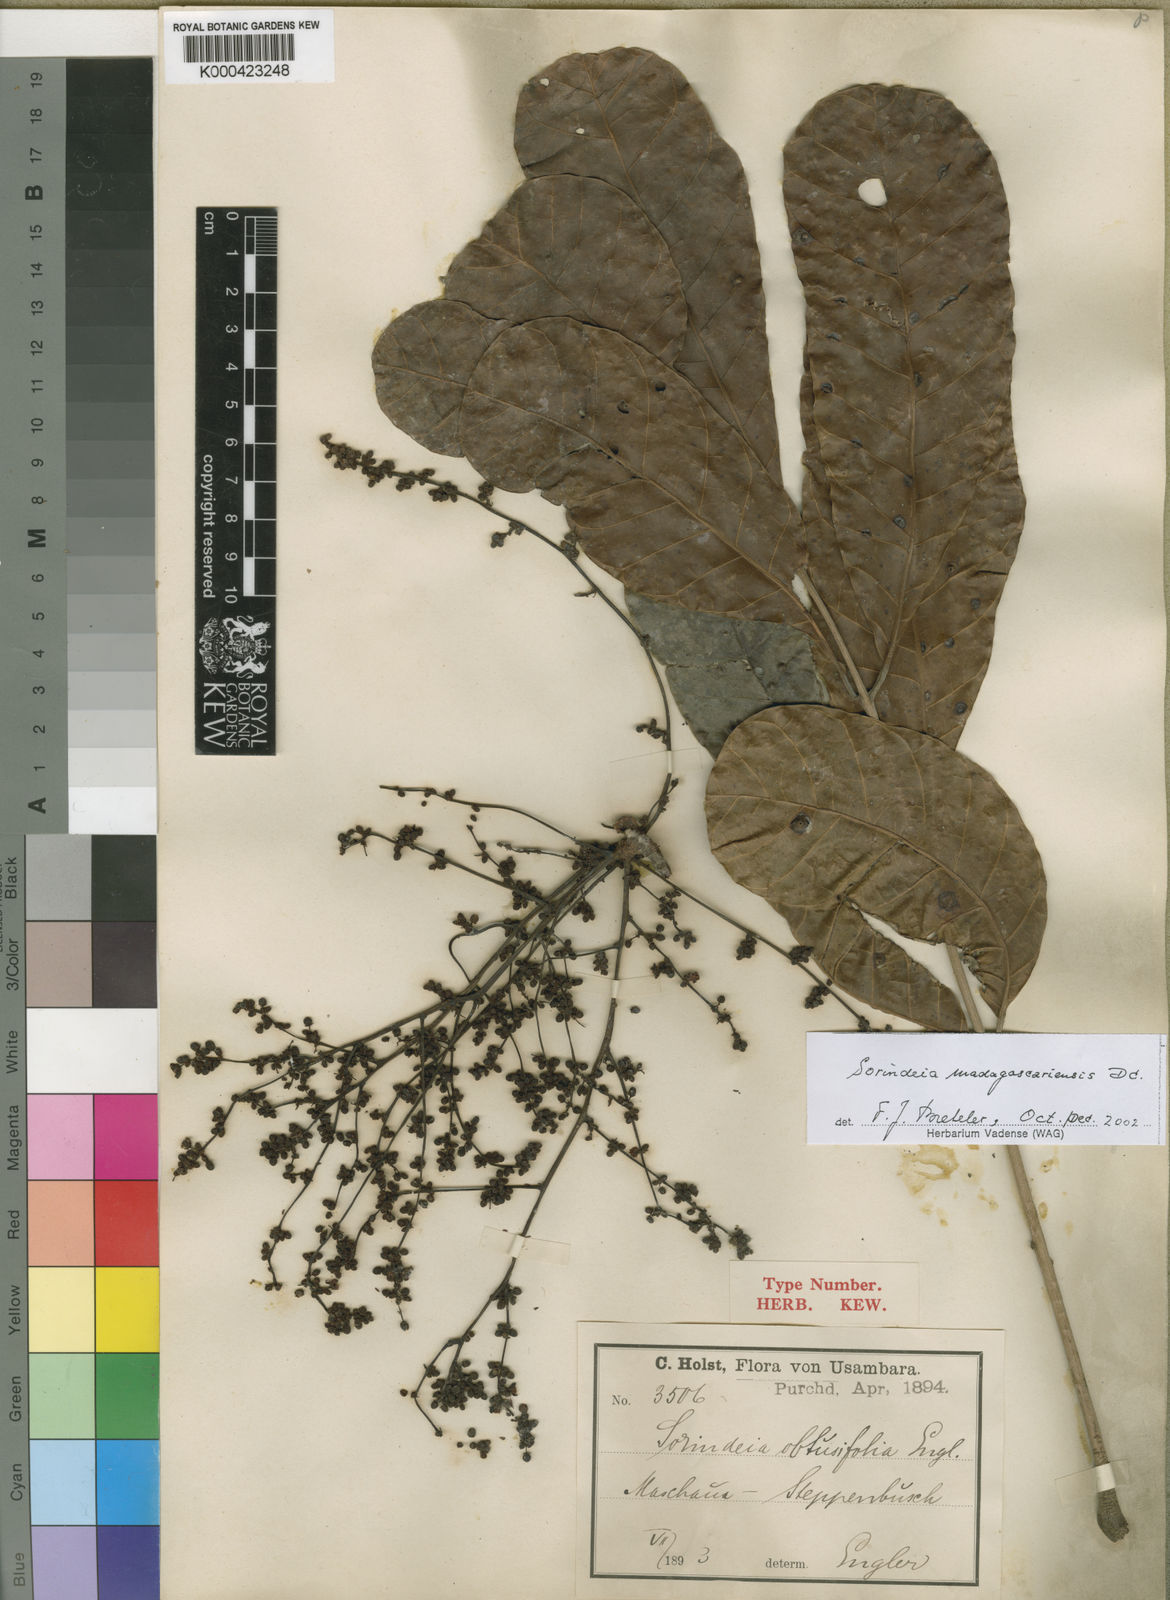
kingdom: Plantae
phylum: Tracheophyta
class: Magnoliopsida
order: Sapindales
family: Anacardiaceae
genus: Sorindeia
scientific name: Sorindeia madagascariensis
